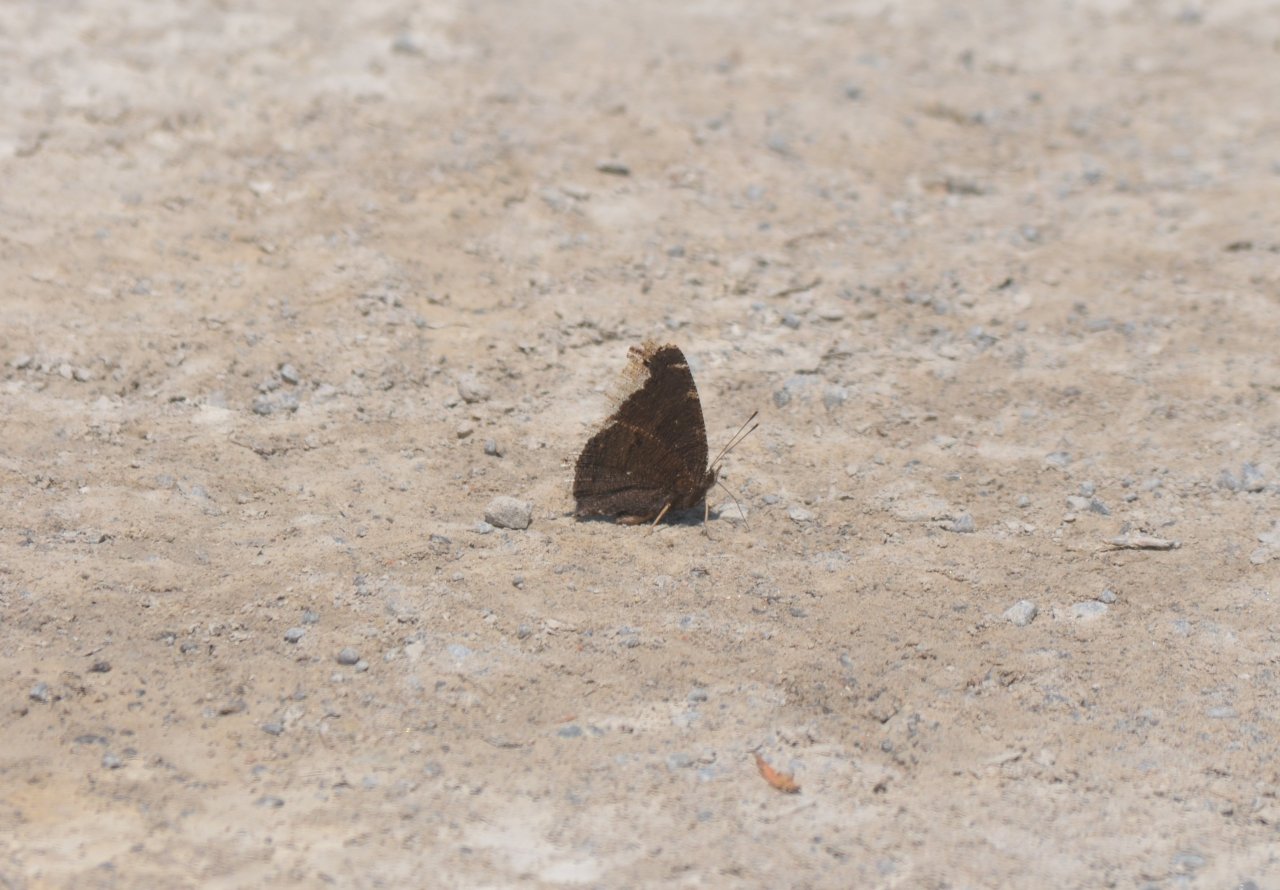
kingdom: Animalia
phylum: Arthropoda
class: Insecta
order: Lepidoptera
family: Nymphalidae
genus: Nymphalis
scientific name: Nymphalis antiopa
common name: Mourning Cloak
